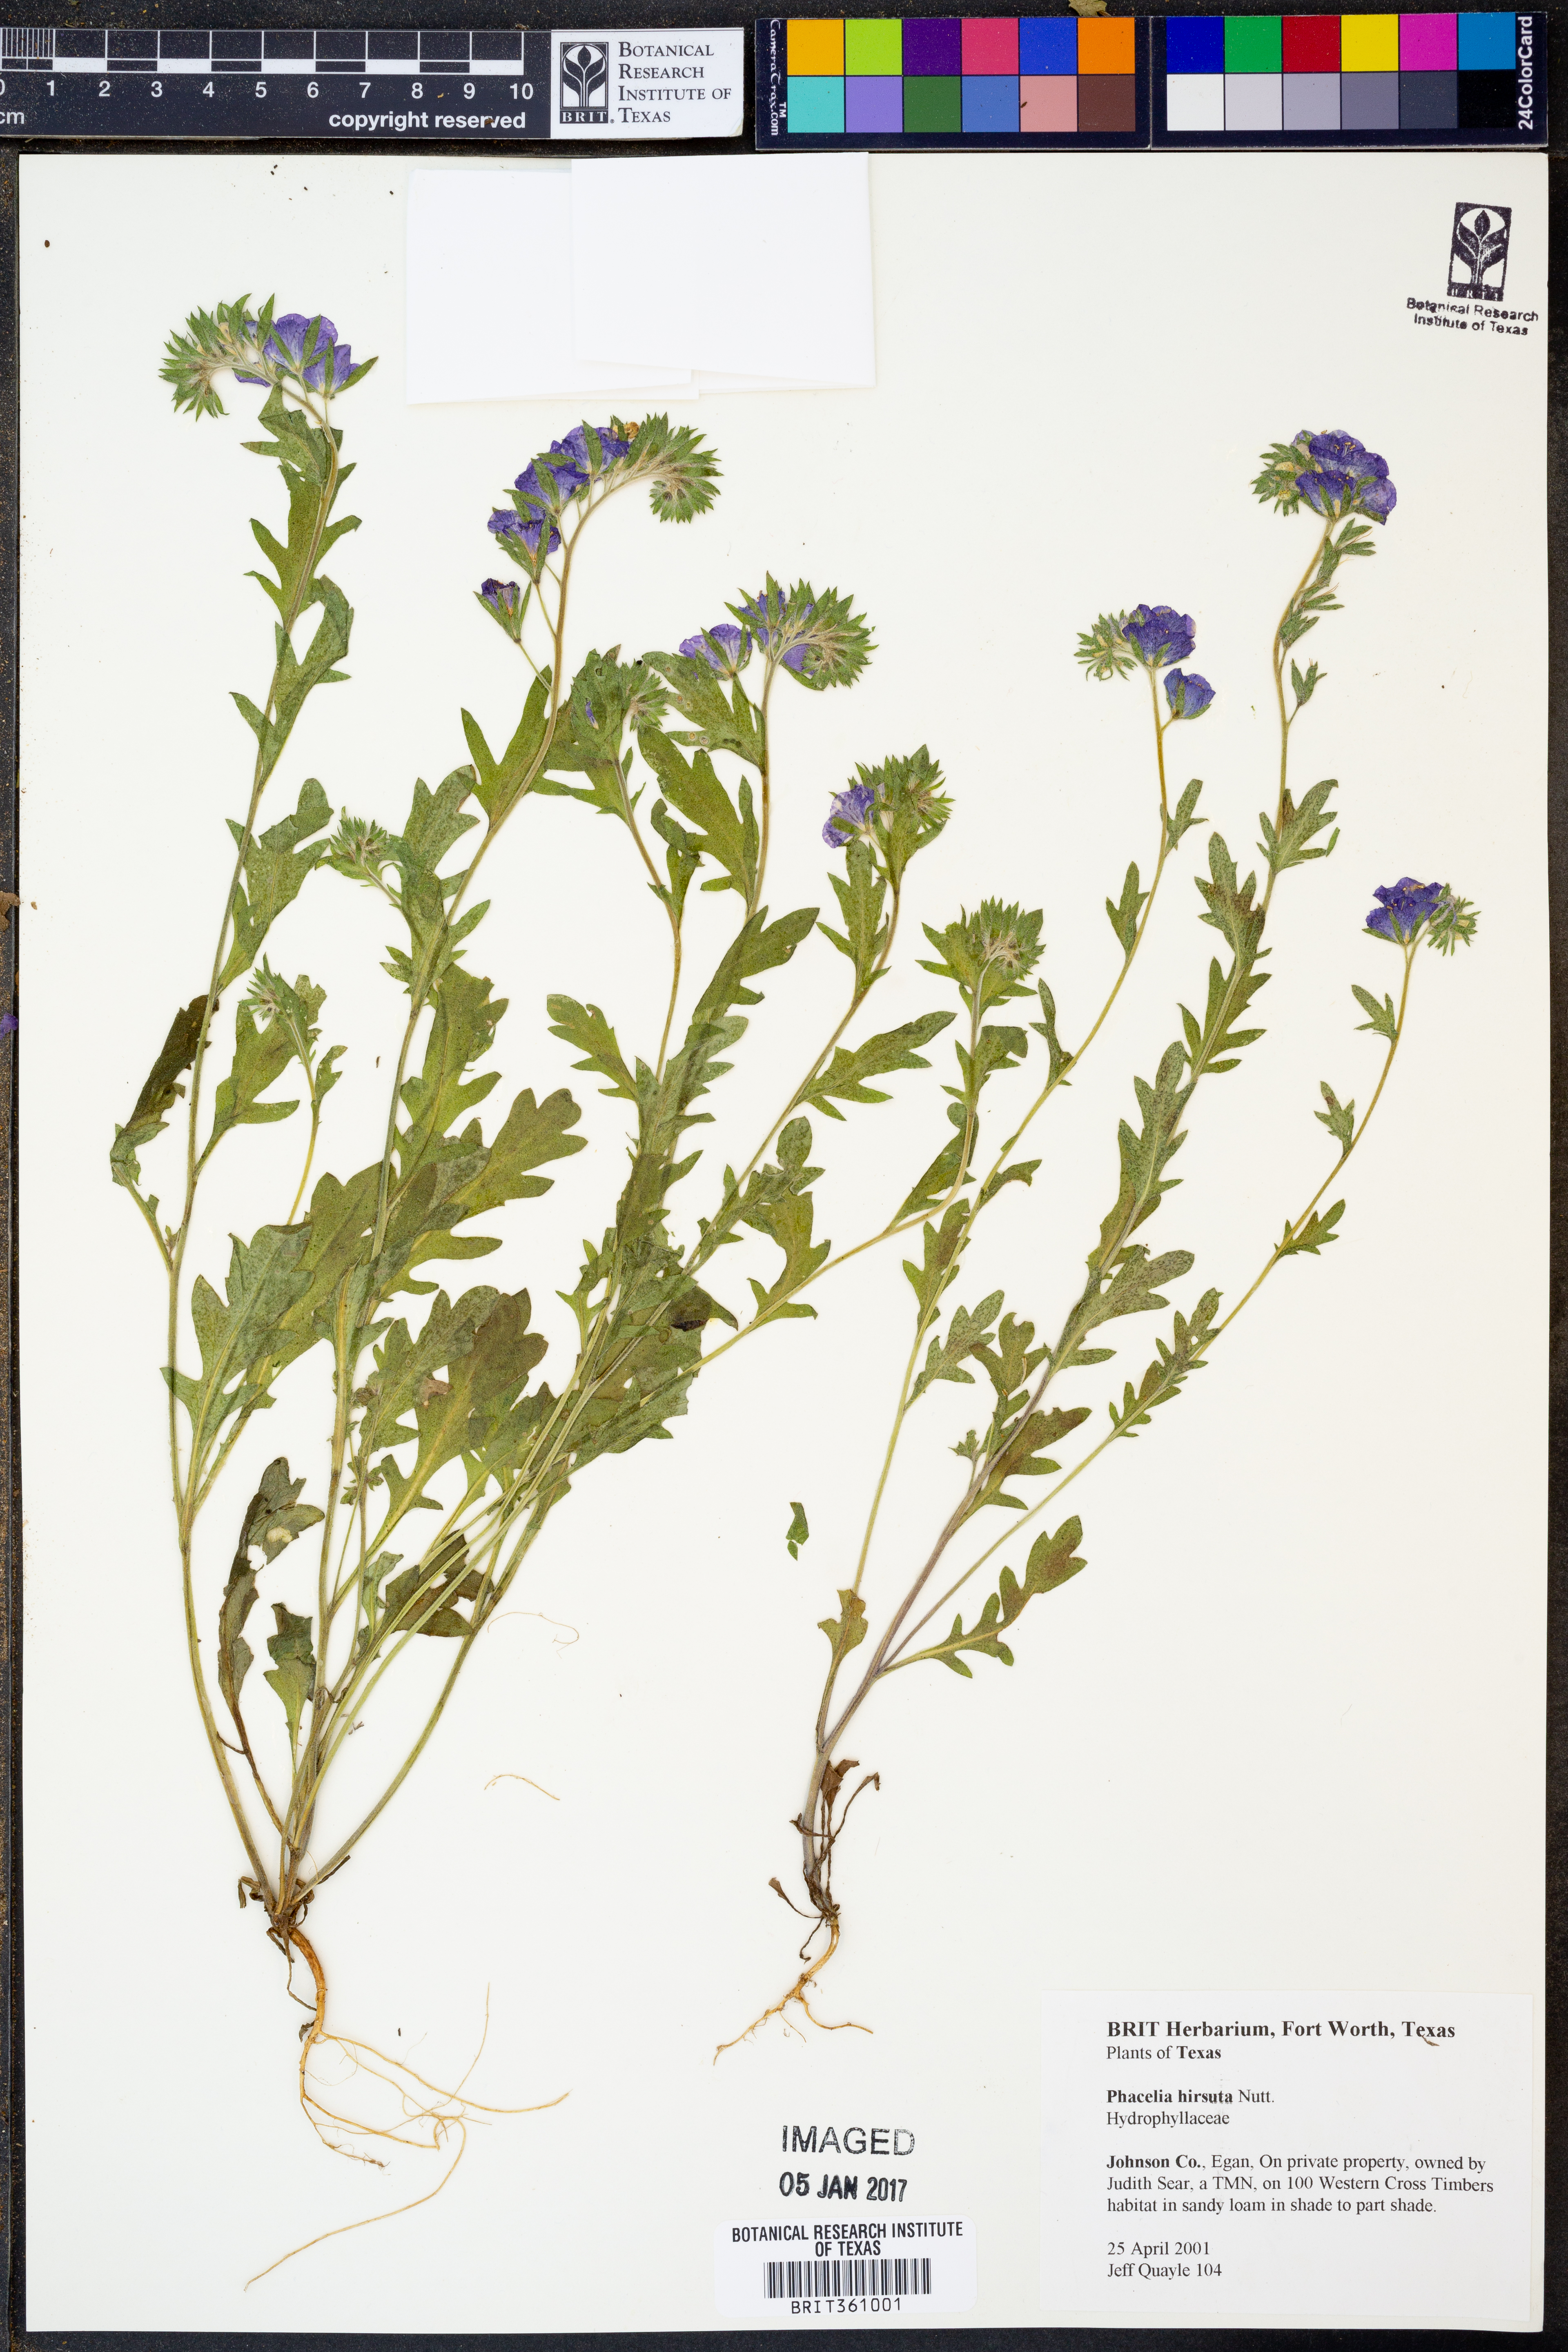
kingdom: Plantae
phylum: Tracheophyta
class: Magnoliopsida
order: Boraginales
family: Hydrophyllaceae
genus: Phacelia
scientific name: Phacelia hirsuta
